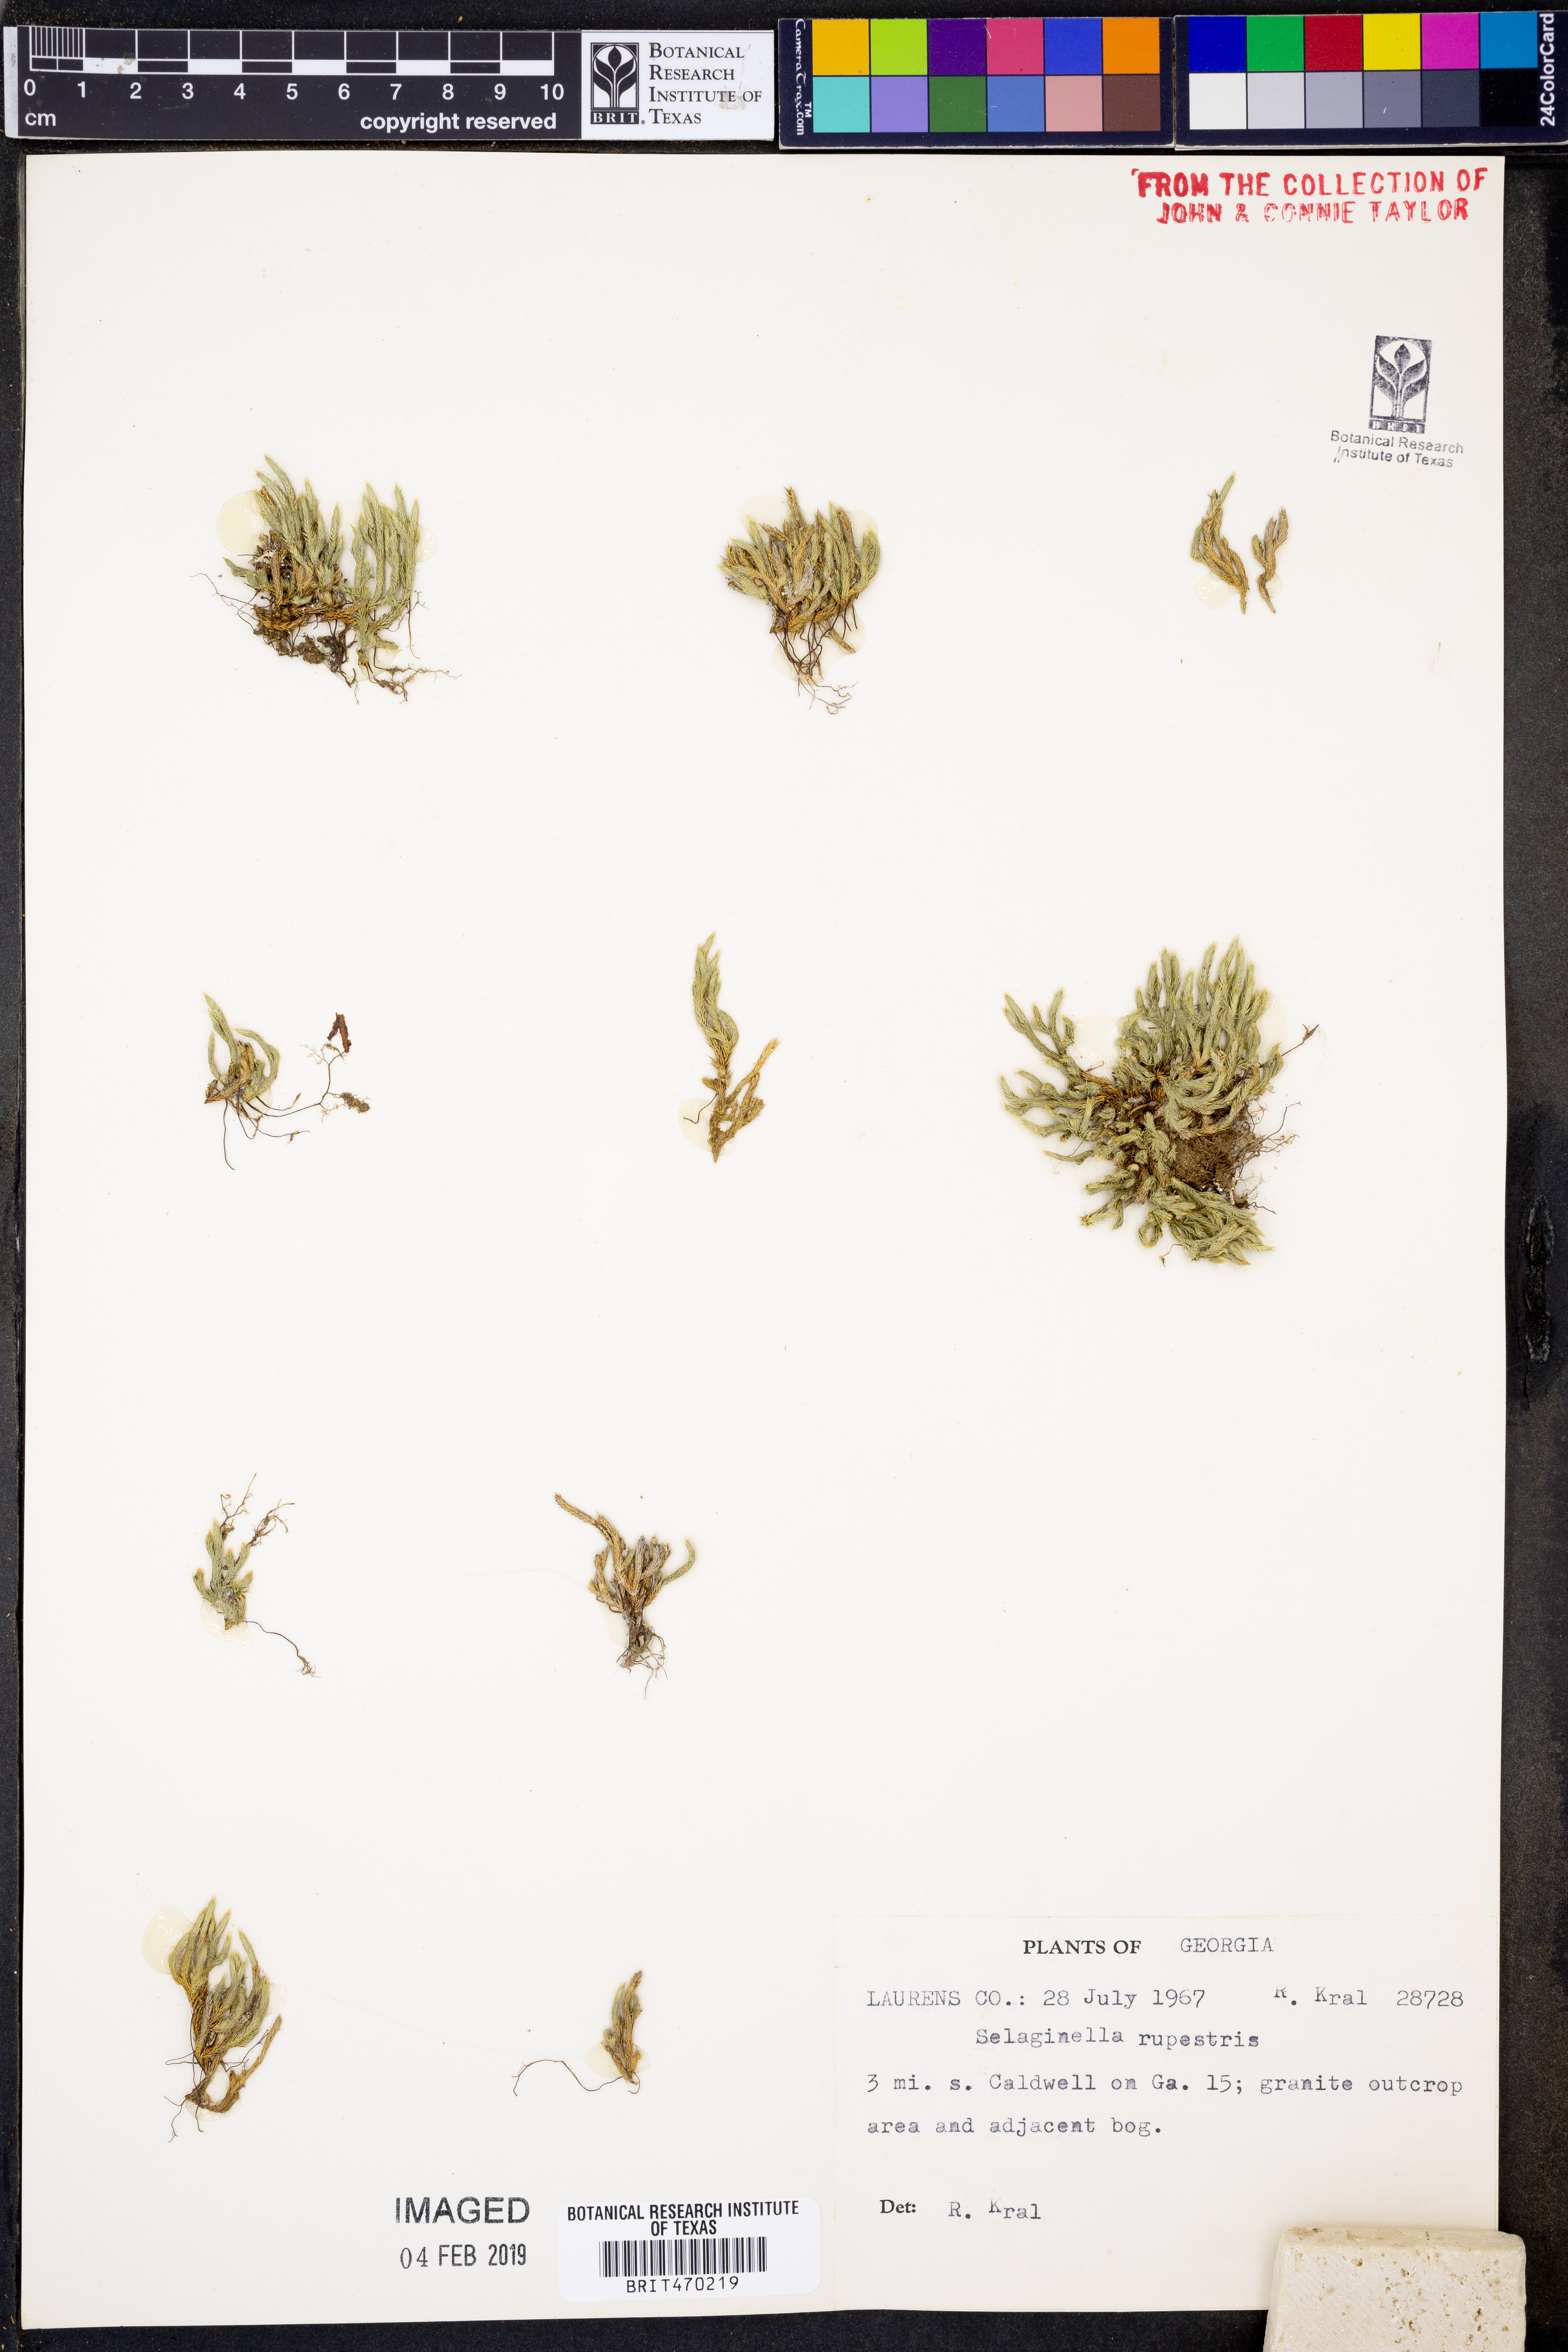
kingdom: Plantae
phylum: Tracheophyta
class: Lycopodiopsida
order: Selaginellales
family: Selaginellaceae
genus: Selaginella
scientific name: Selaginella rupestris
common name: Dwarf spikemoss
